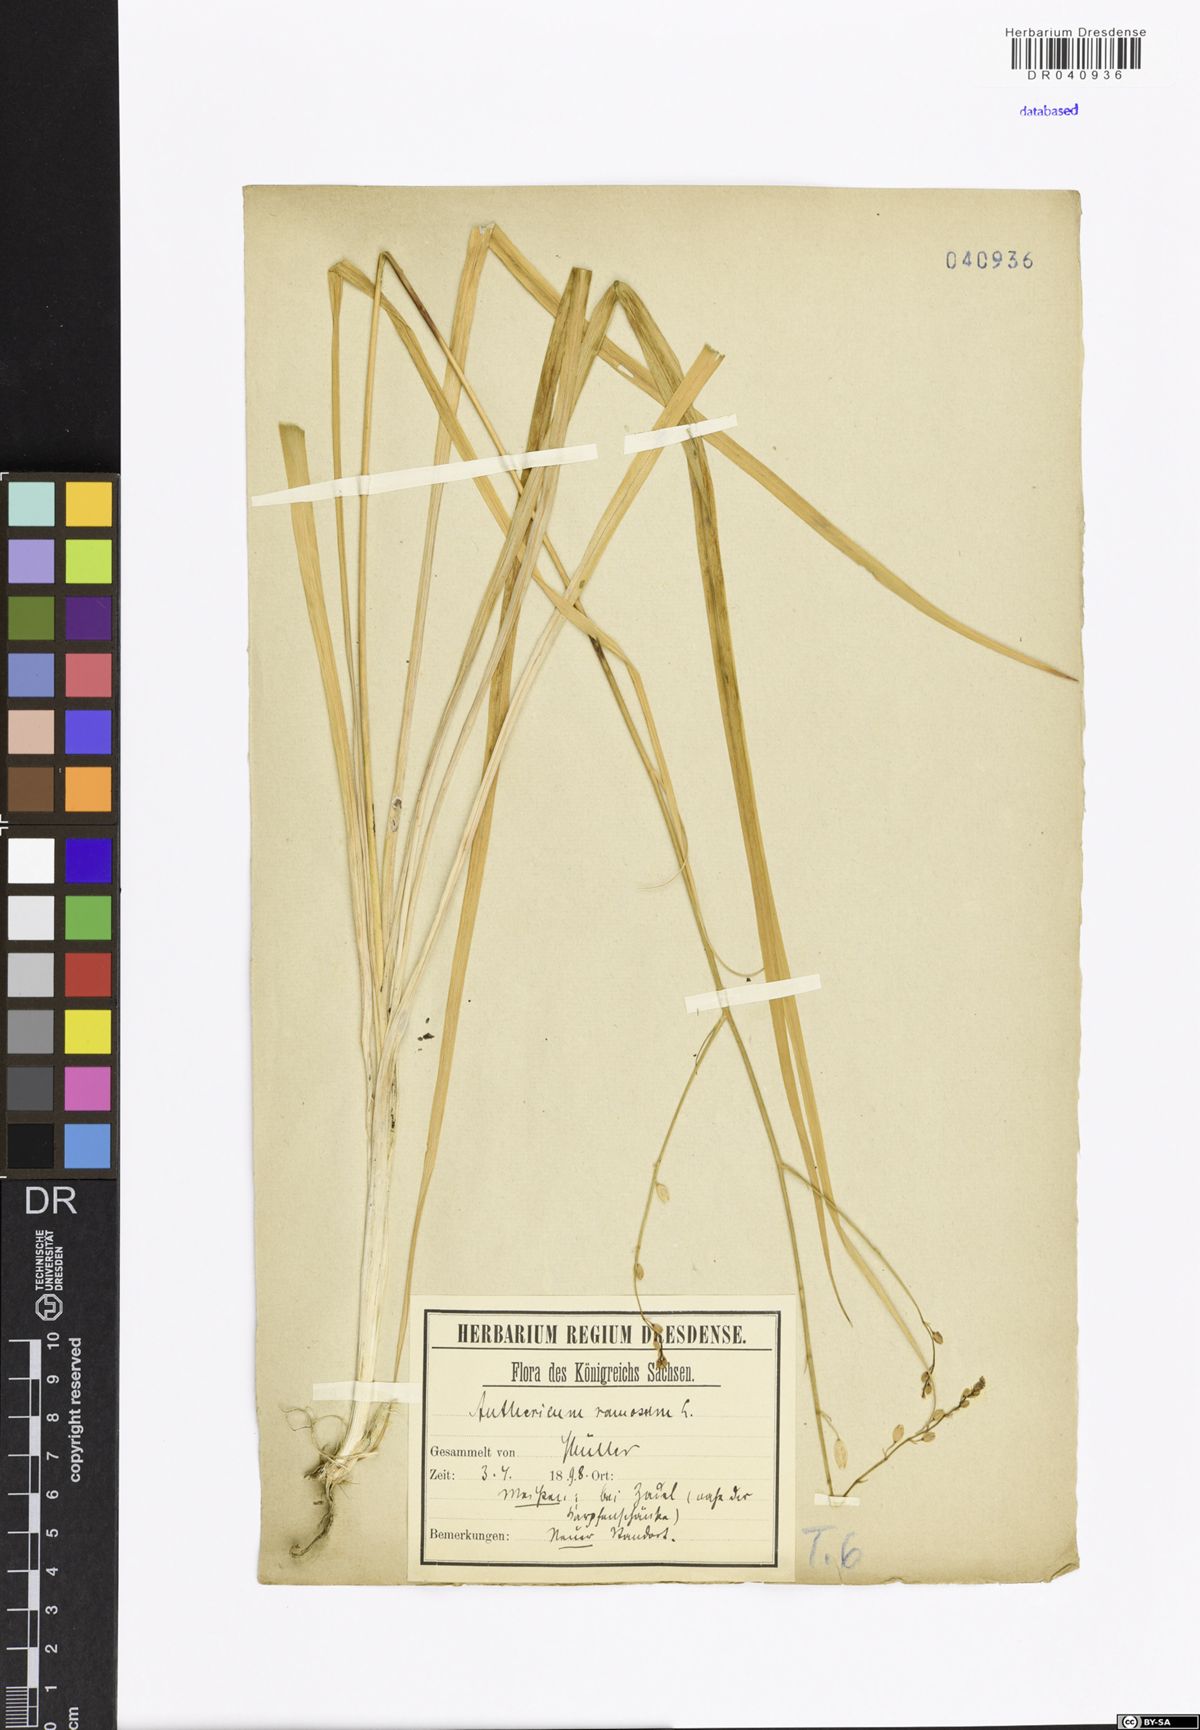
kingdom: Plantae
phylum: Tracheophyta
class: Liliopsida
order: Asparagales
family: Asparagaceae
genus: Anthericum
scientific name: Anthericum ramosum
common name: Branched st. bernard's-lily
